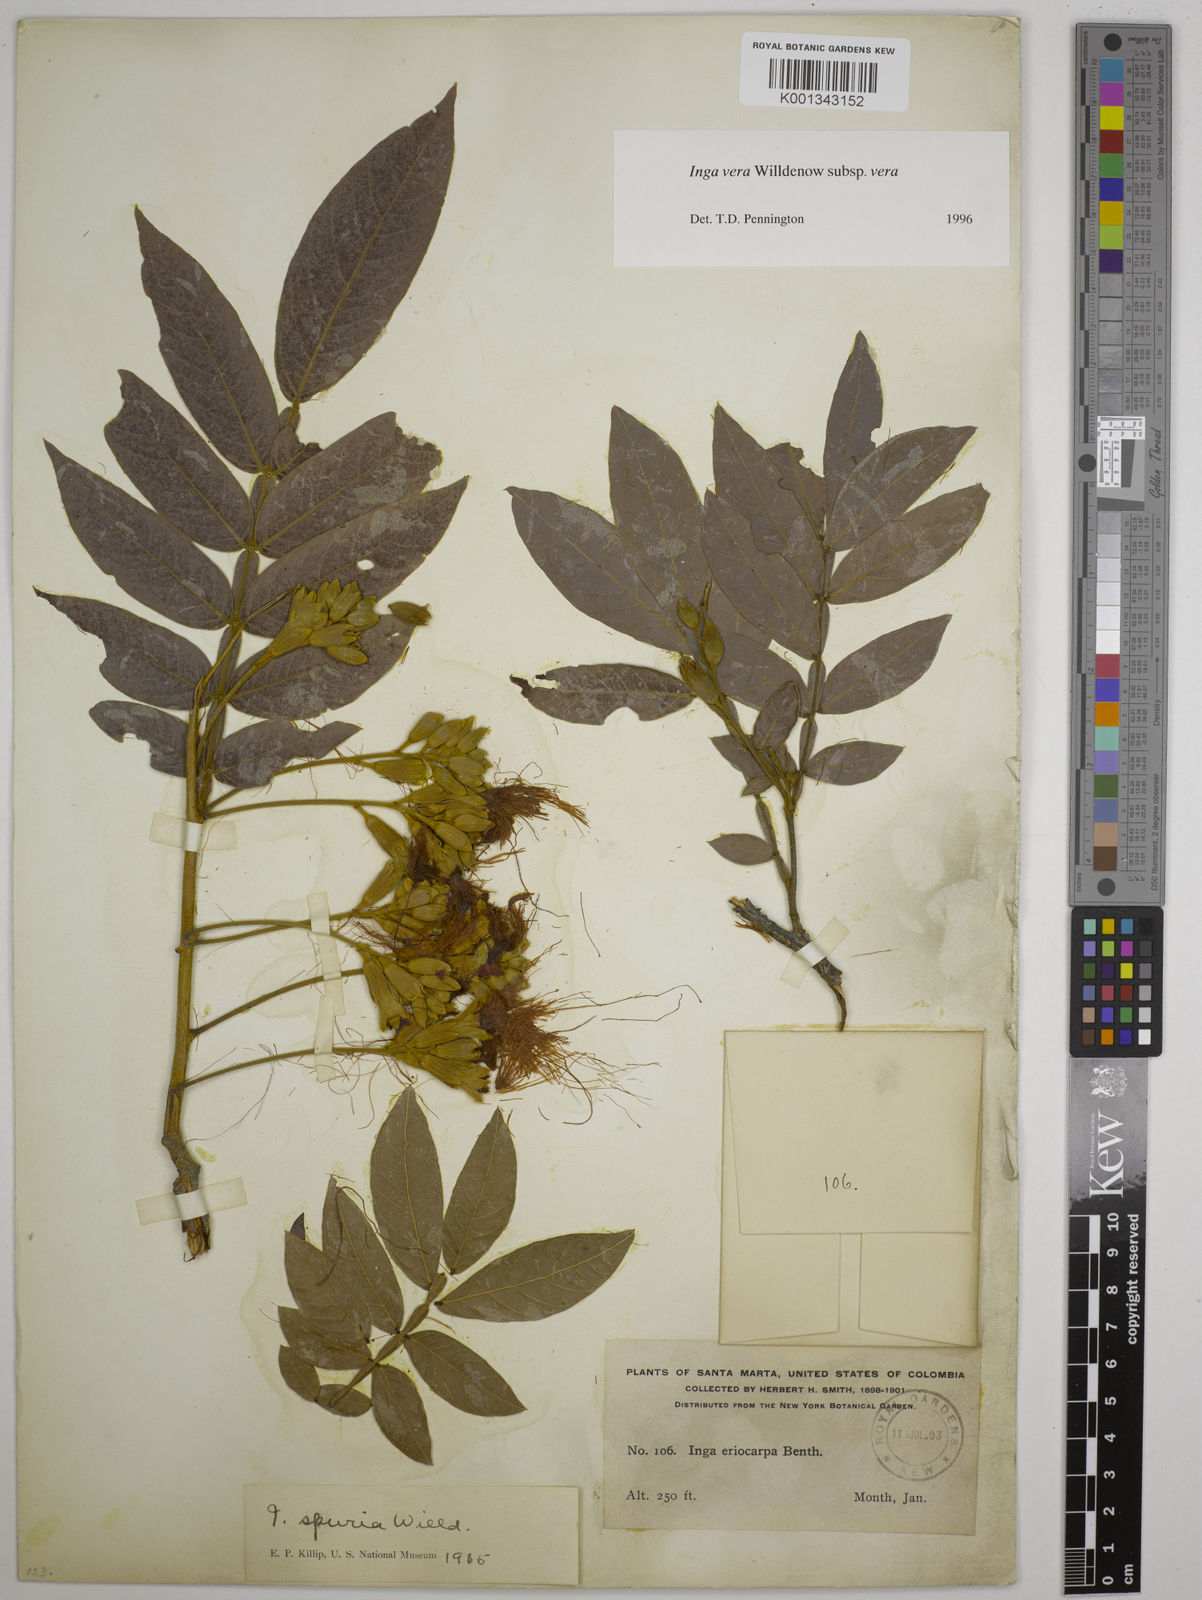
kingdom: Plantae
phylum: Tracheophyta
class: Magnoliopsida
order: Fabales
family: Fabaceae
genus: Inga
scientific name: Inga vera
